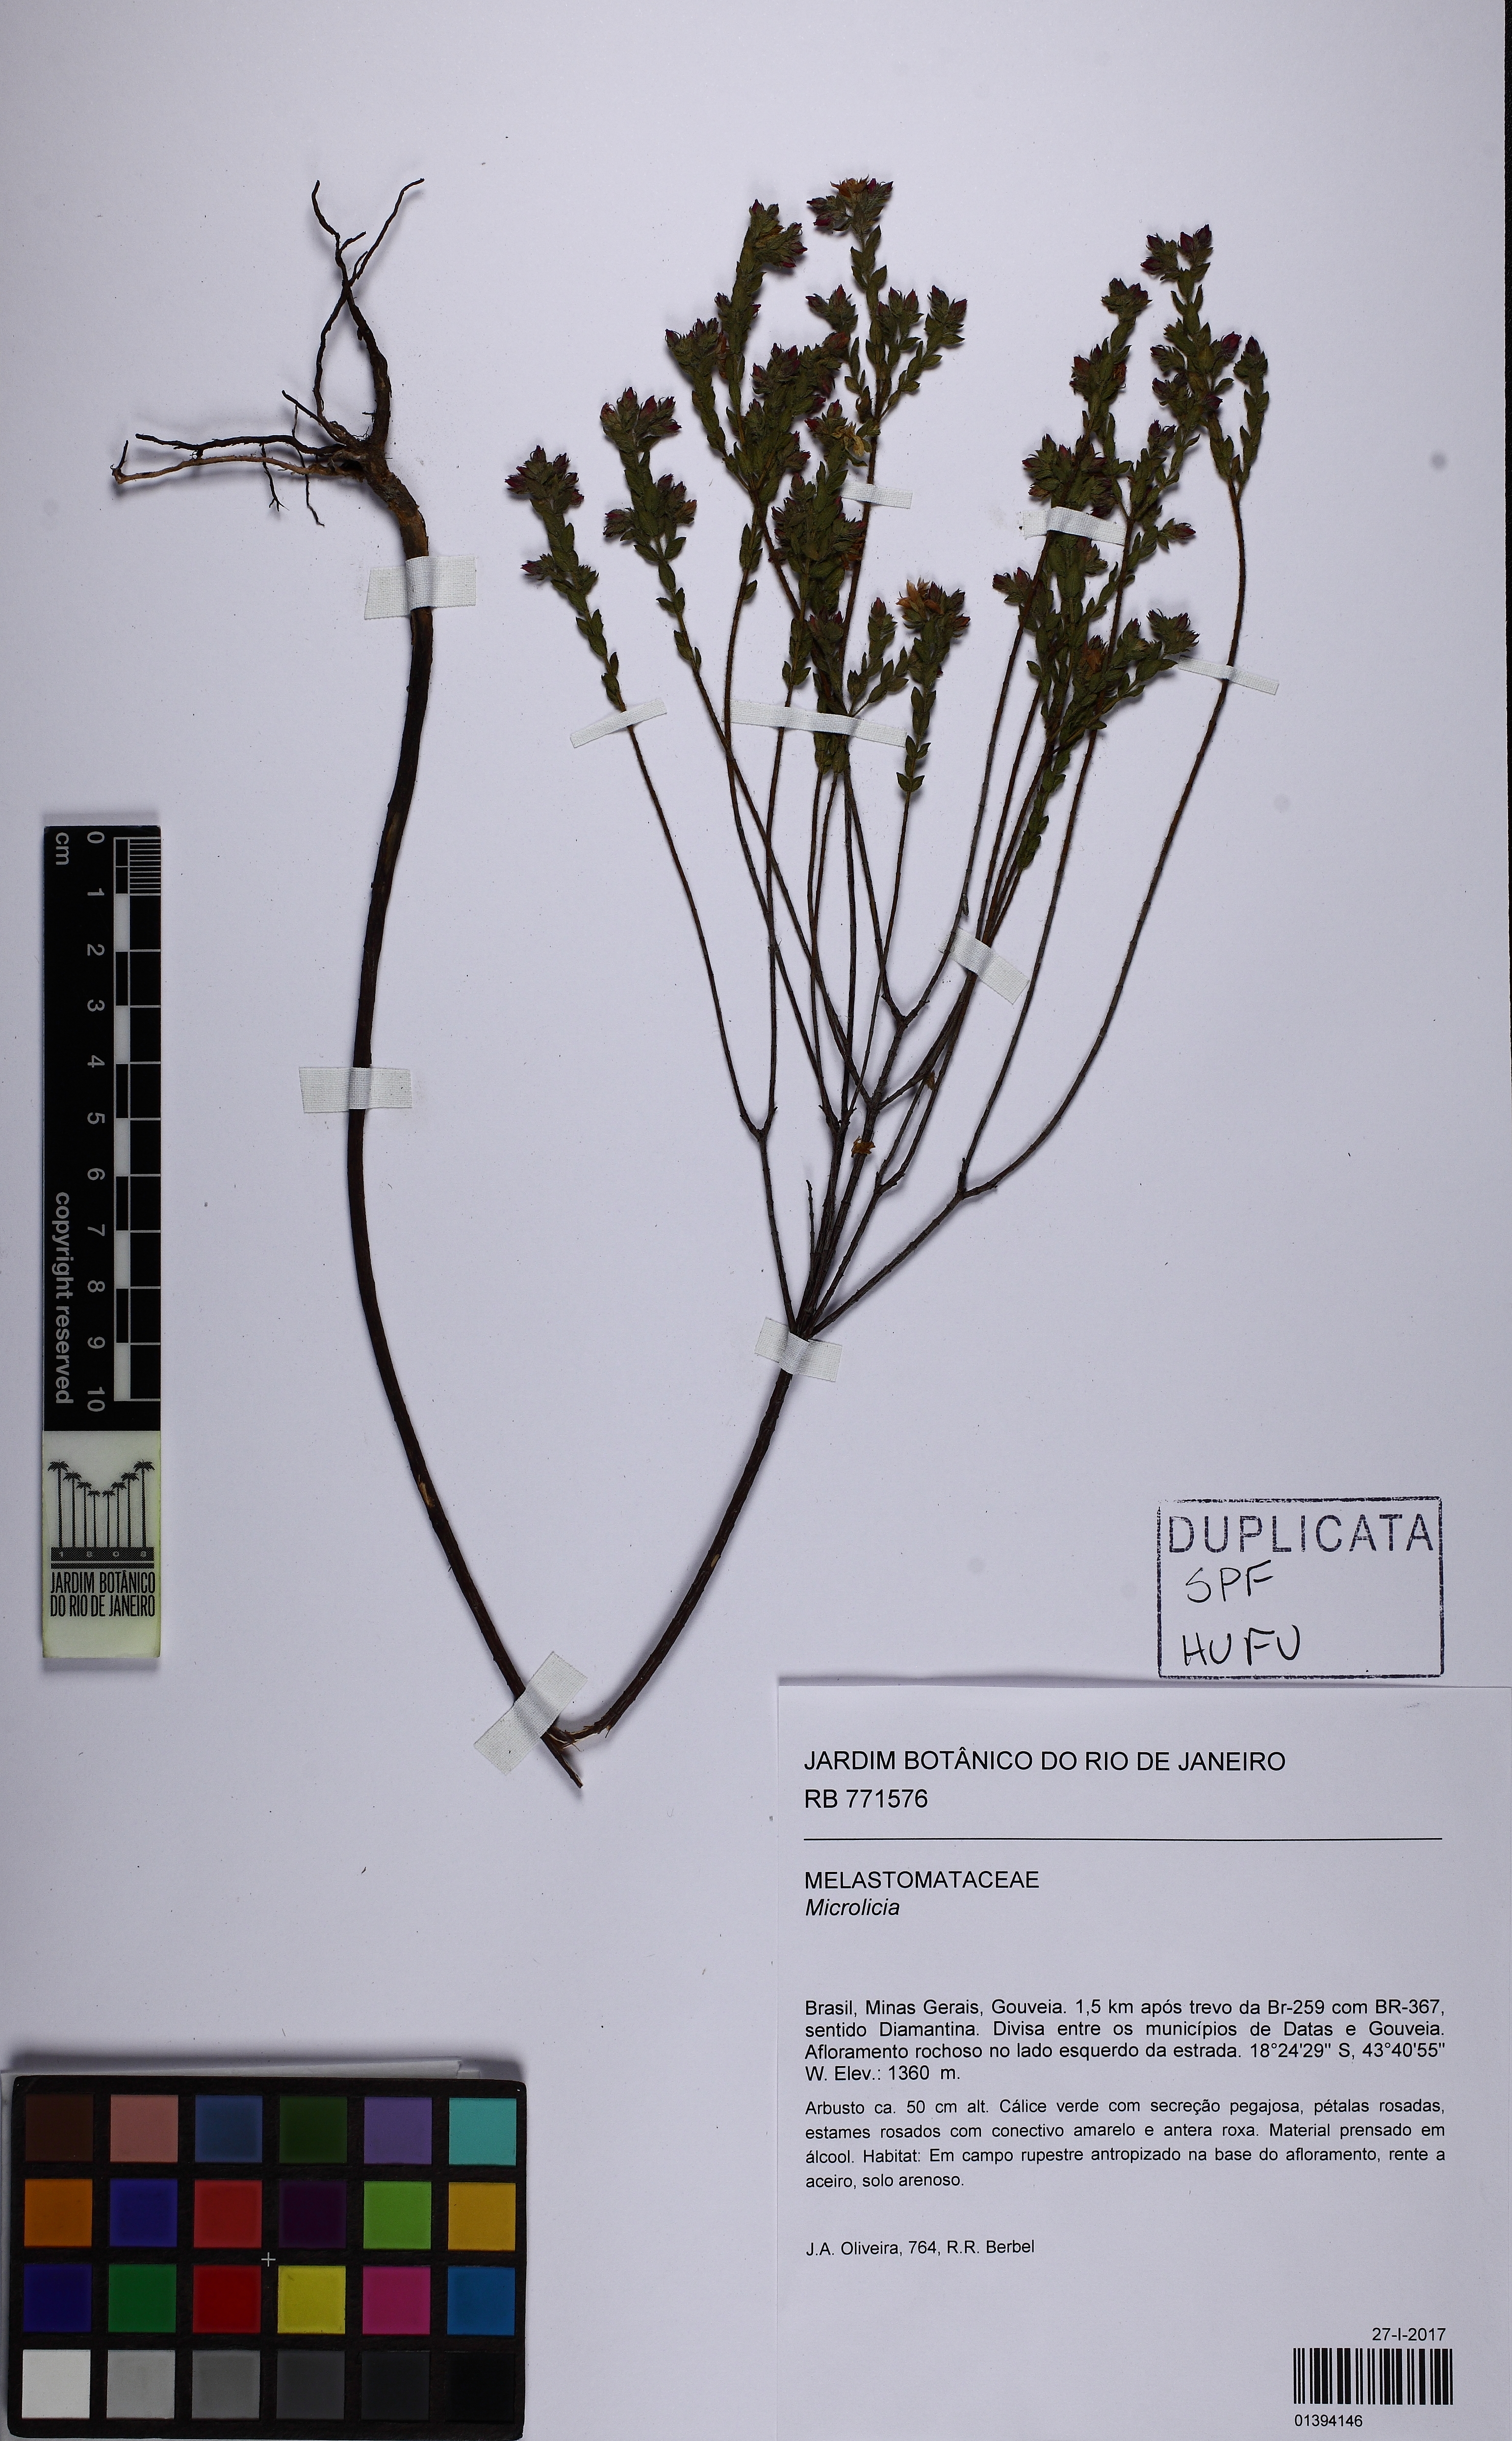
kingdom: Plantae
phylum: Tracheophyta
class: Magnoliopsida
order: Myrtales
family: Melastomataceae
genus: Microlicia
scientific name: Microlicia hirticalyx
